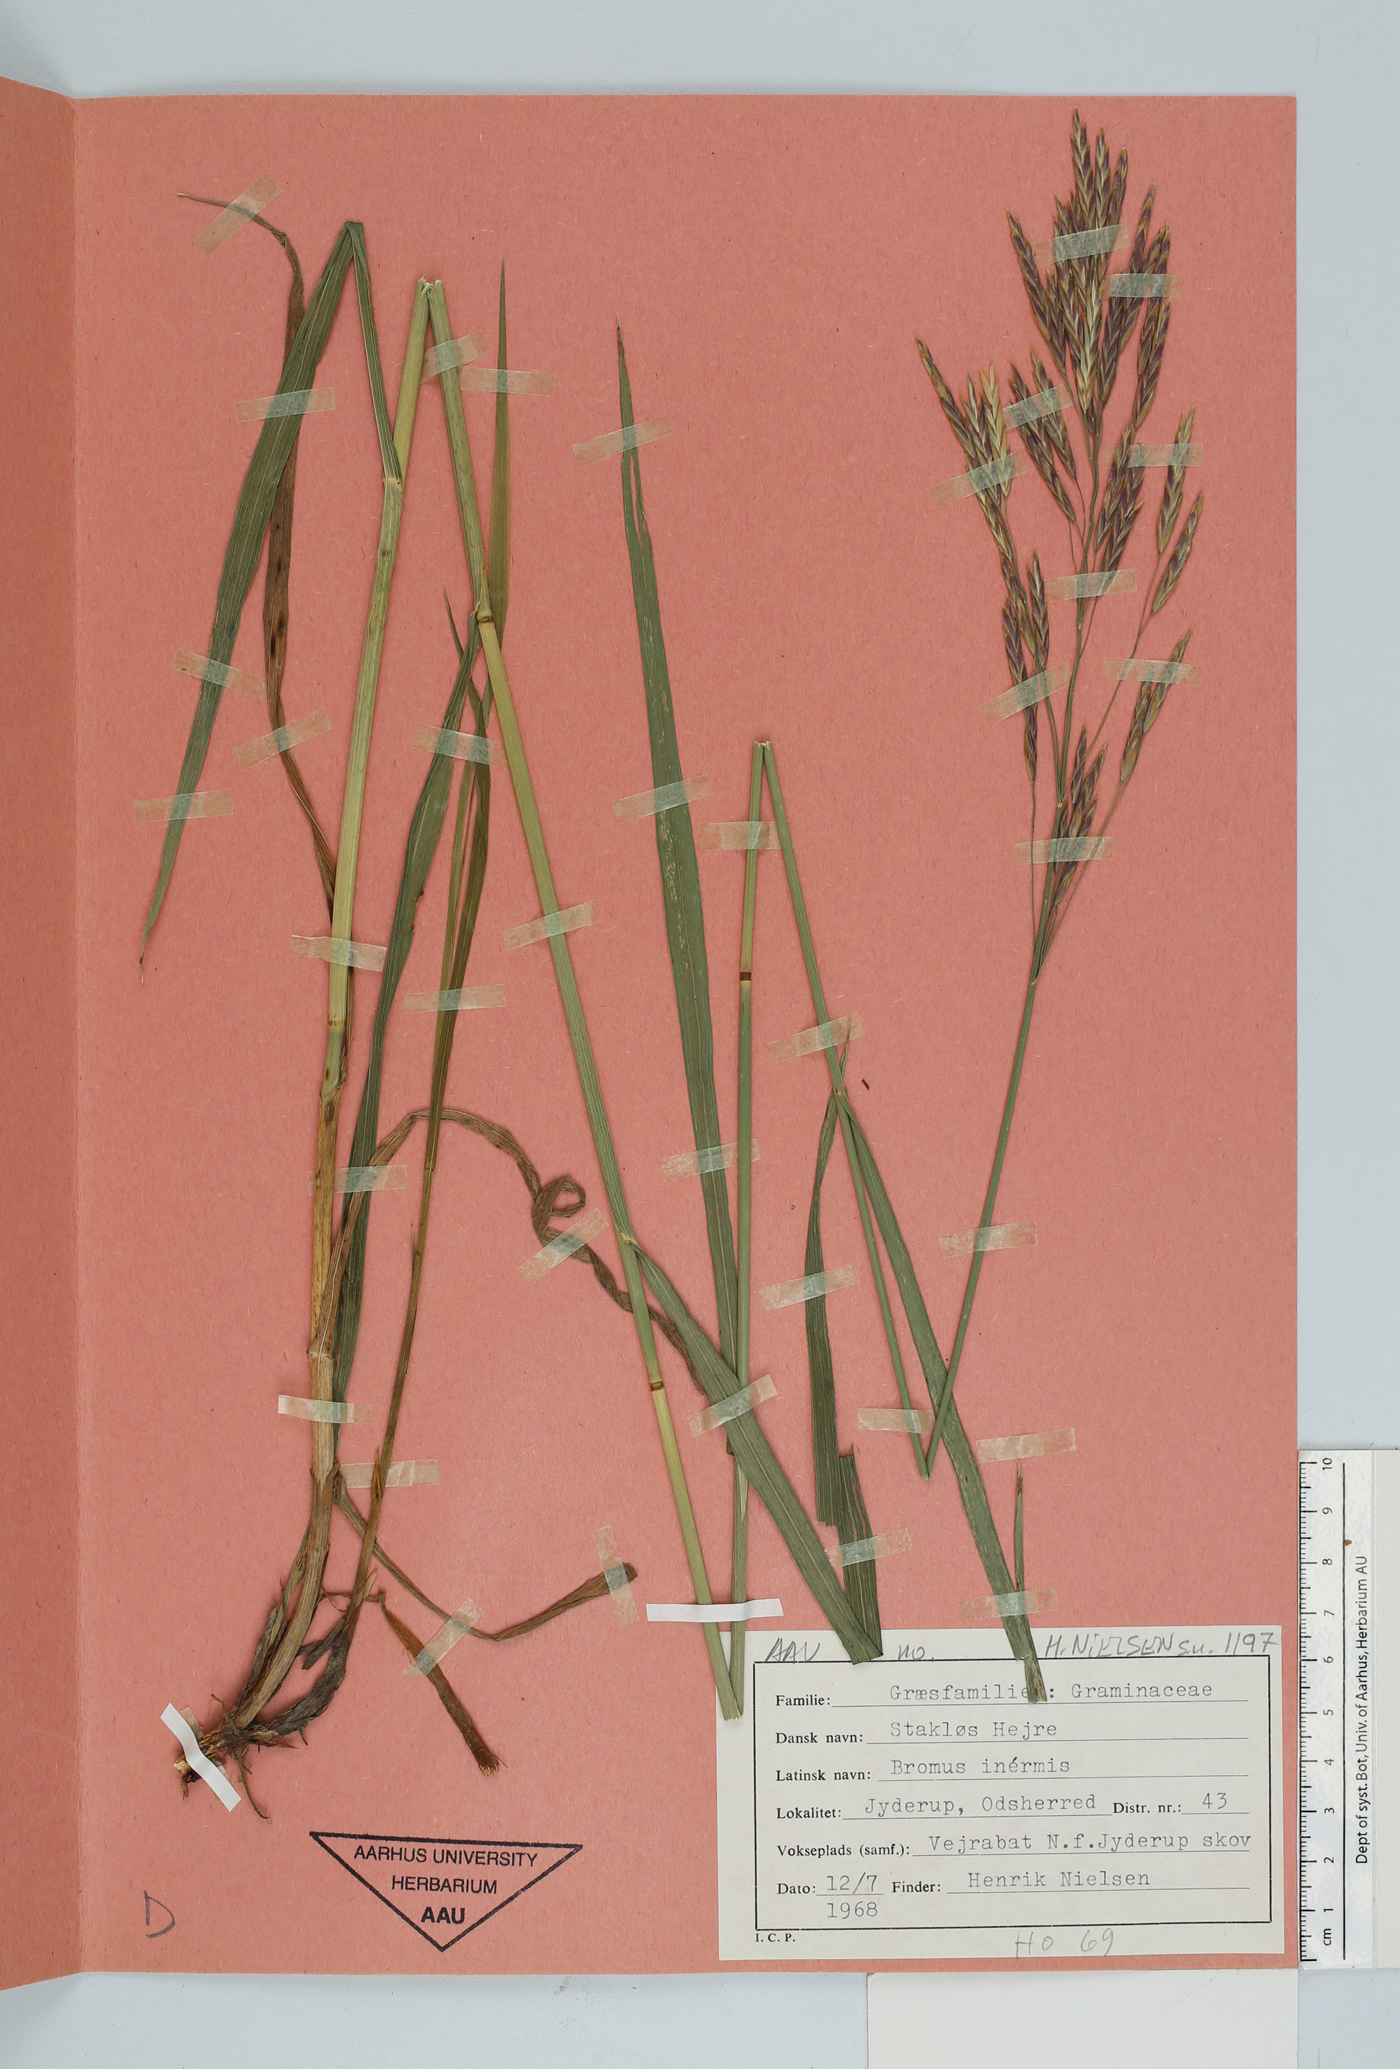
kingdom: Plantae
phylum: Tracheophyta
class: Liliopsida
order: Poales
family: Poaceae
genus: Bromus
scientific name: Bromus inermis
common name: Smooth brome
